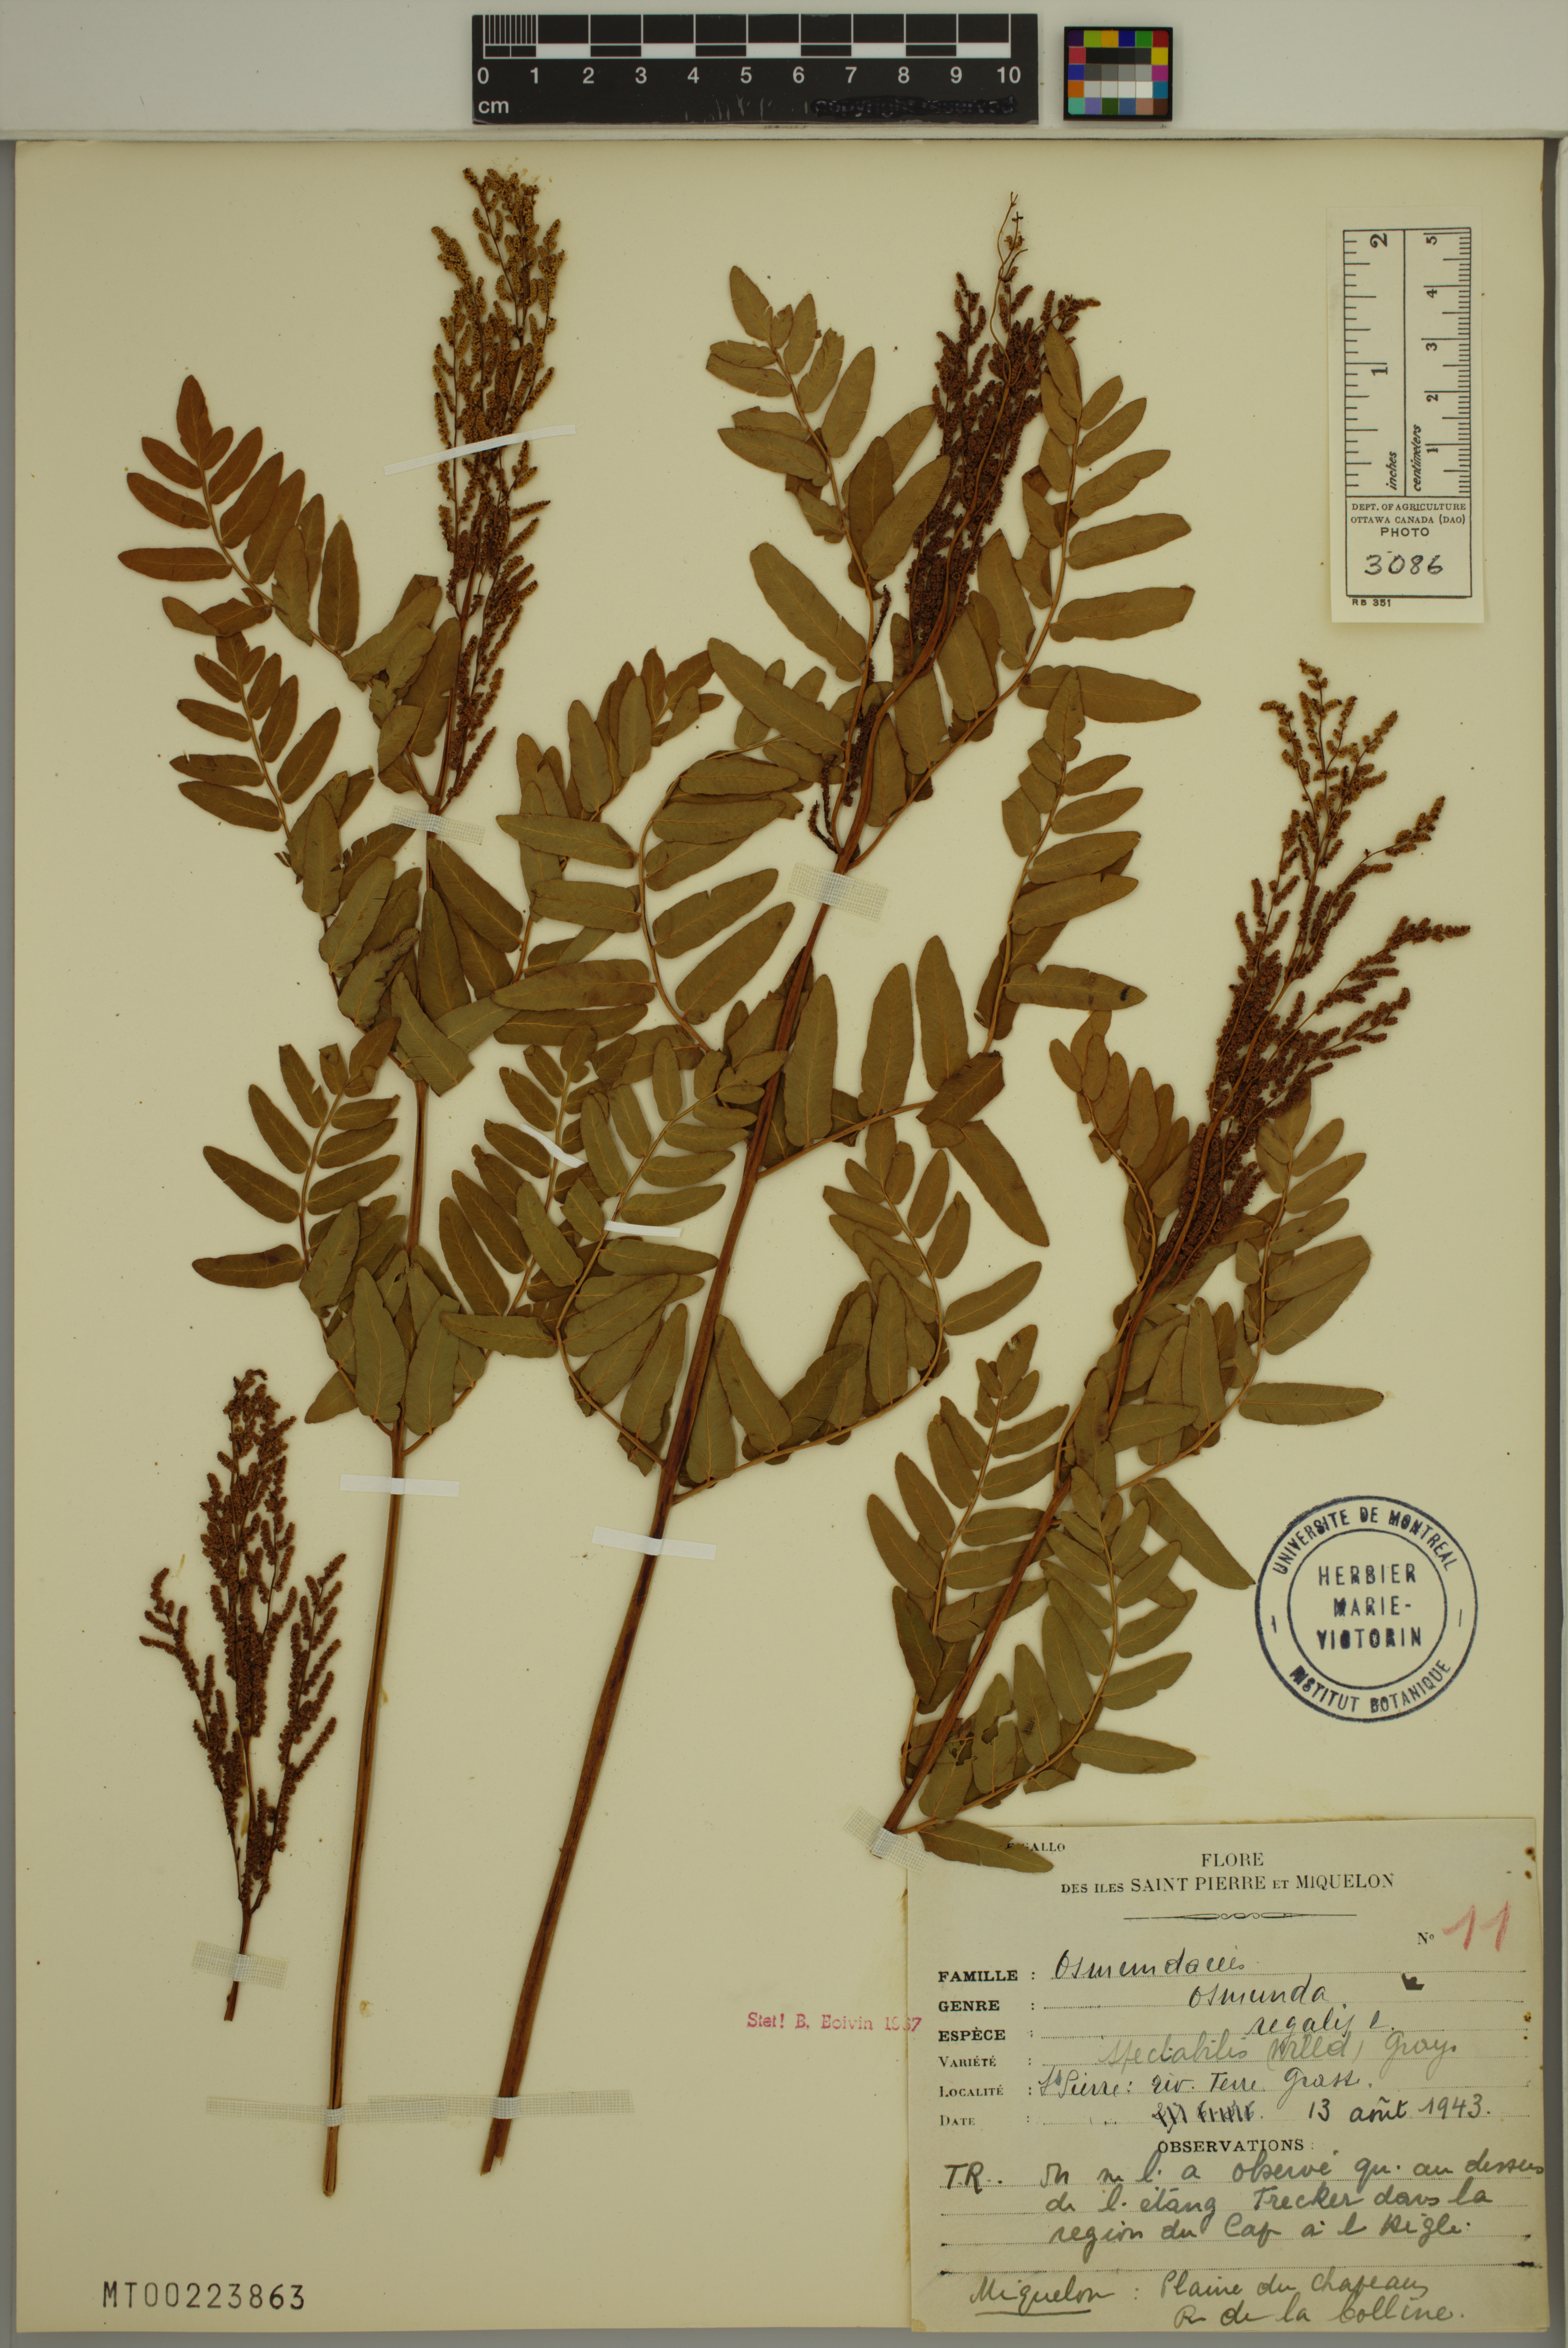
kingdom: Plantae
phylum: Tracheophyta
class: Polypodiopsida
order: Osmundales
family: Osmundaceae
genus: Osmunda
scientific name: Osmunda spectabilis
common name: American royal fern
